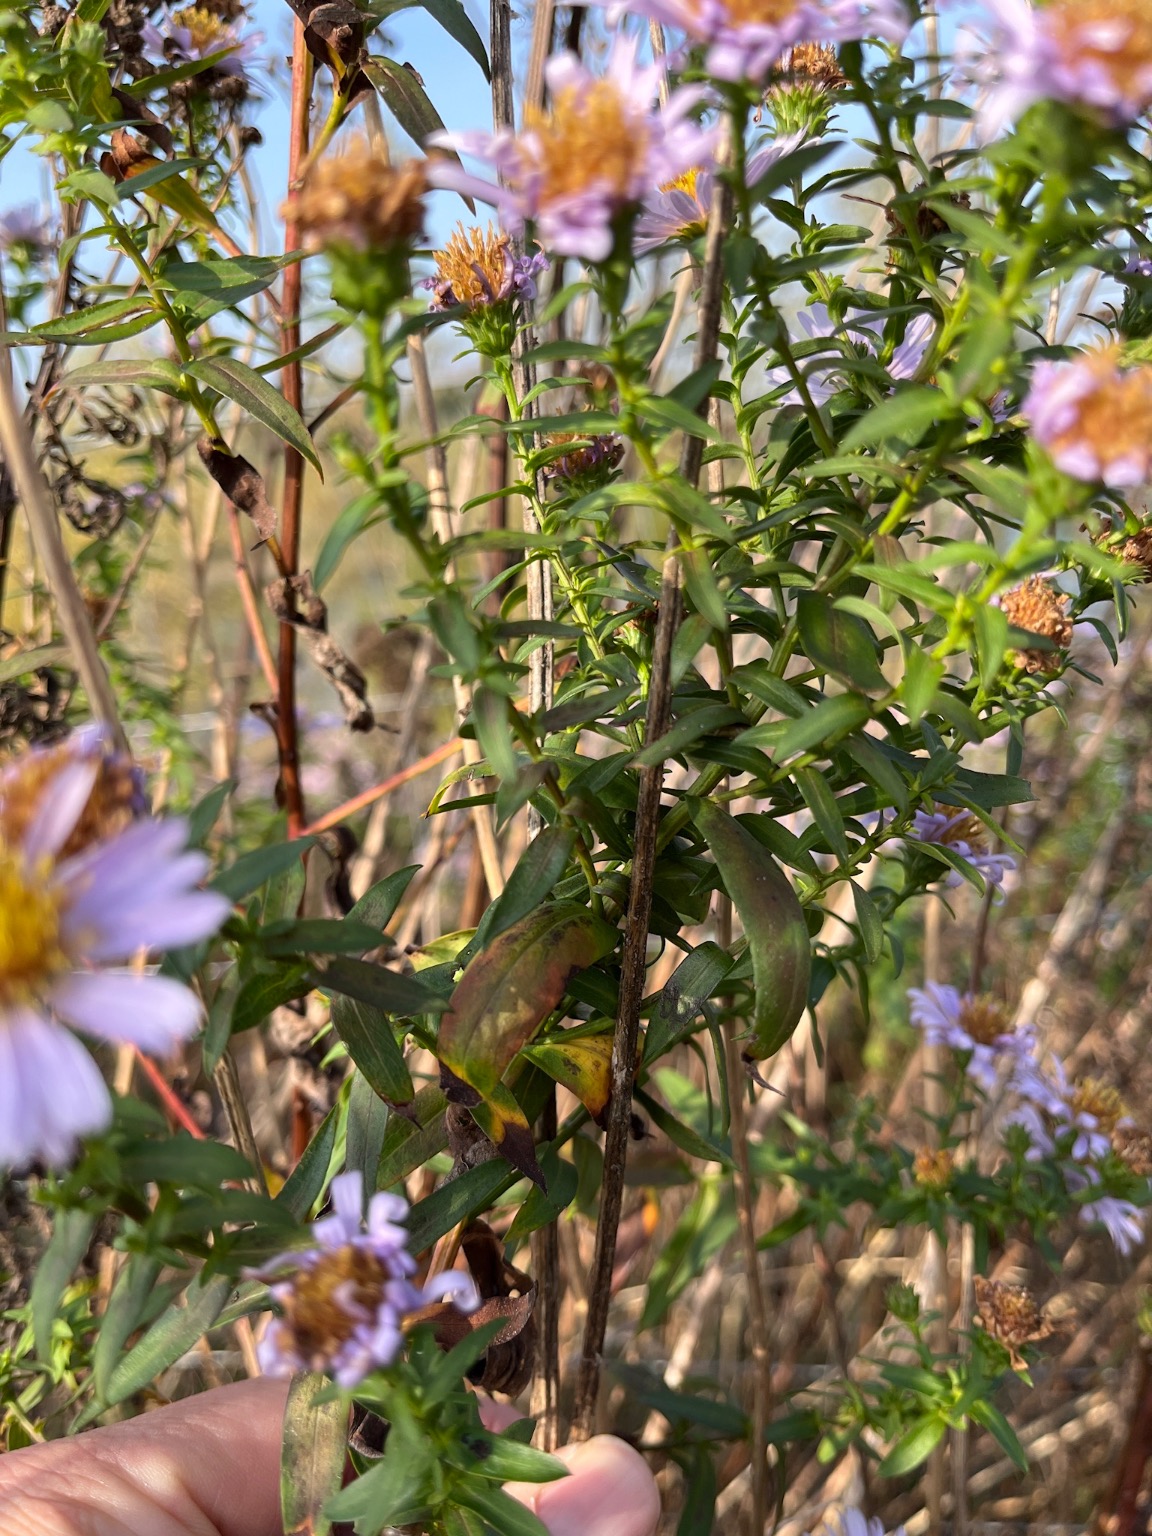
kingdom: Plantae
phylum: Tracheophyta
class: Magnoliopsida
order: Asterales
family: Asteraceae
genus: Symphyotrichum
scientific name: Symphyotrichum versicolor
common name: Broget asters
